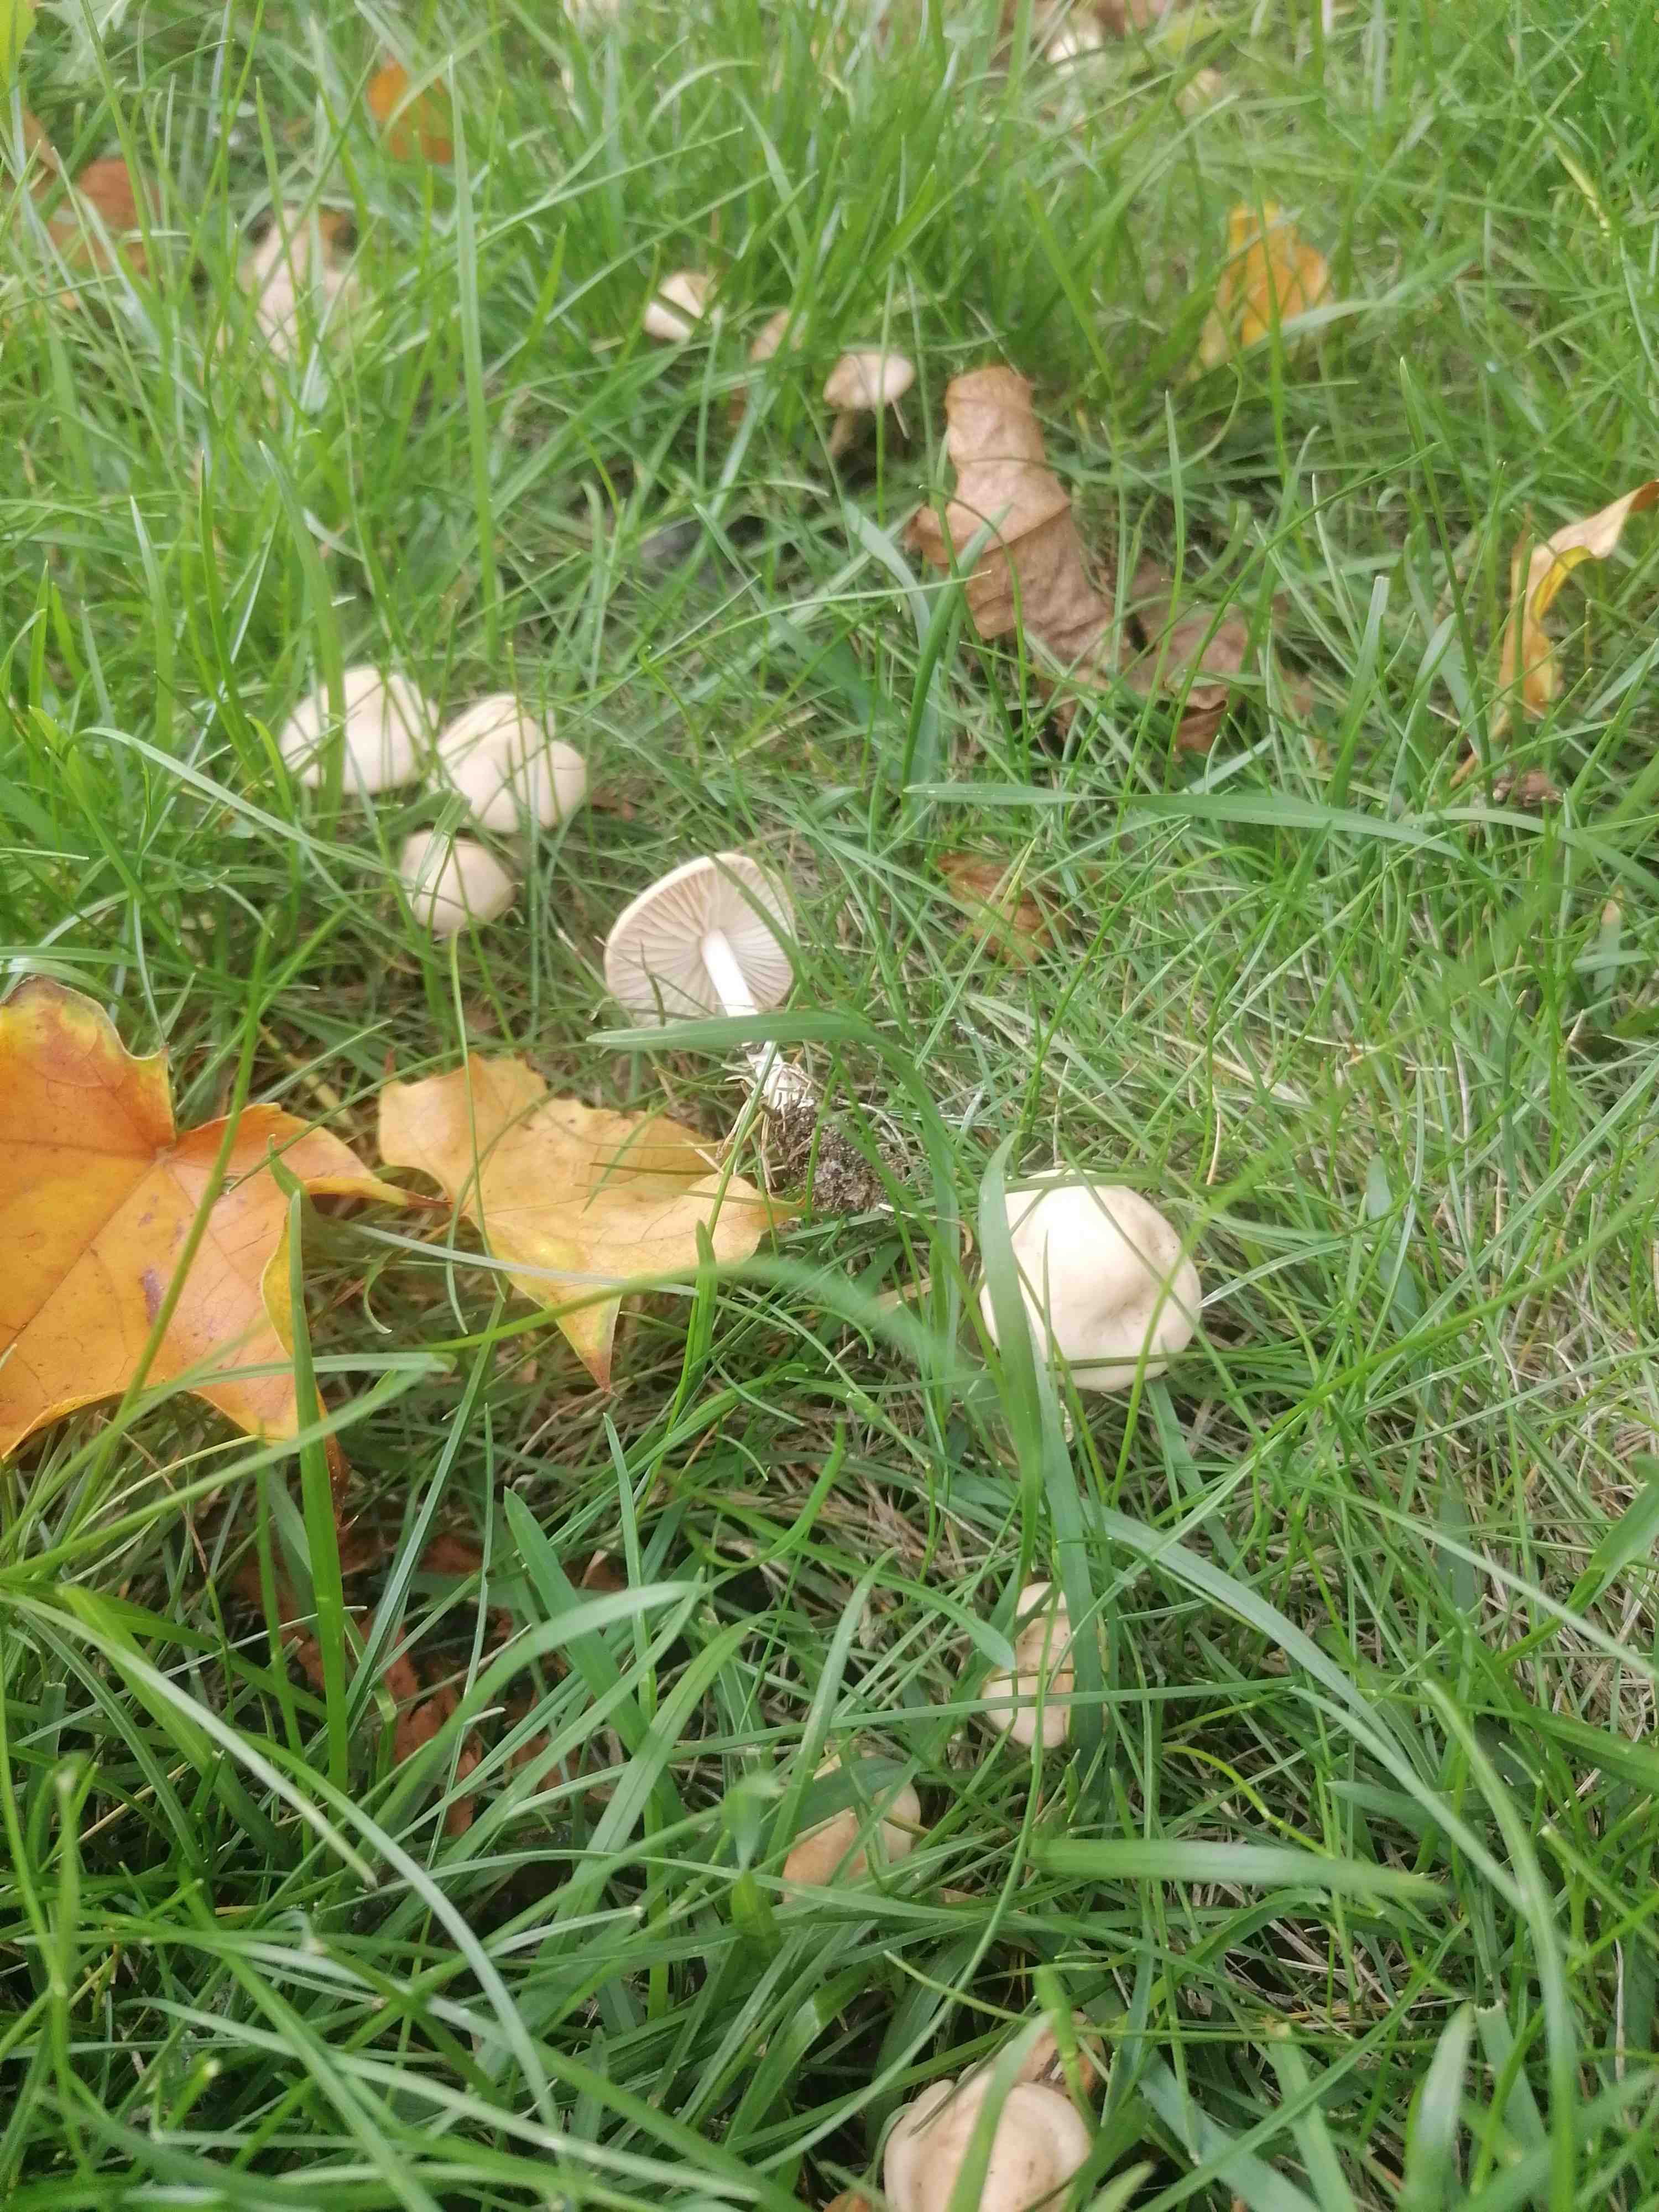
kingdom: Fungi
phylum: Basidiomycota
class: Agaricomycetes
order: Agaricales
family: Marasmiaceae
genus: Marasmius
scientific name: Marasmius oreades
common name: elledans-bruskhat
